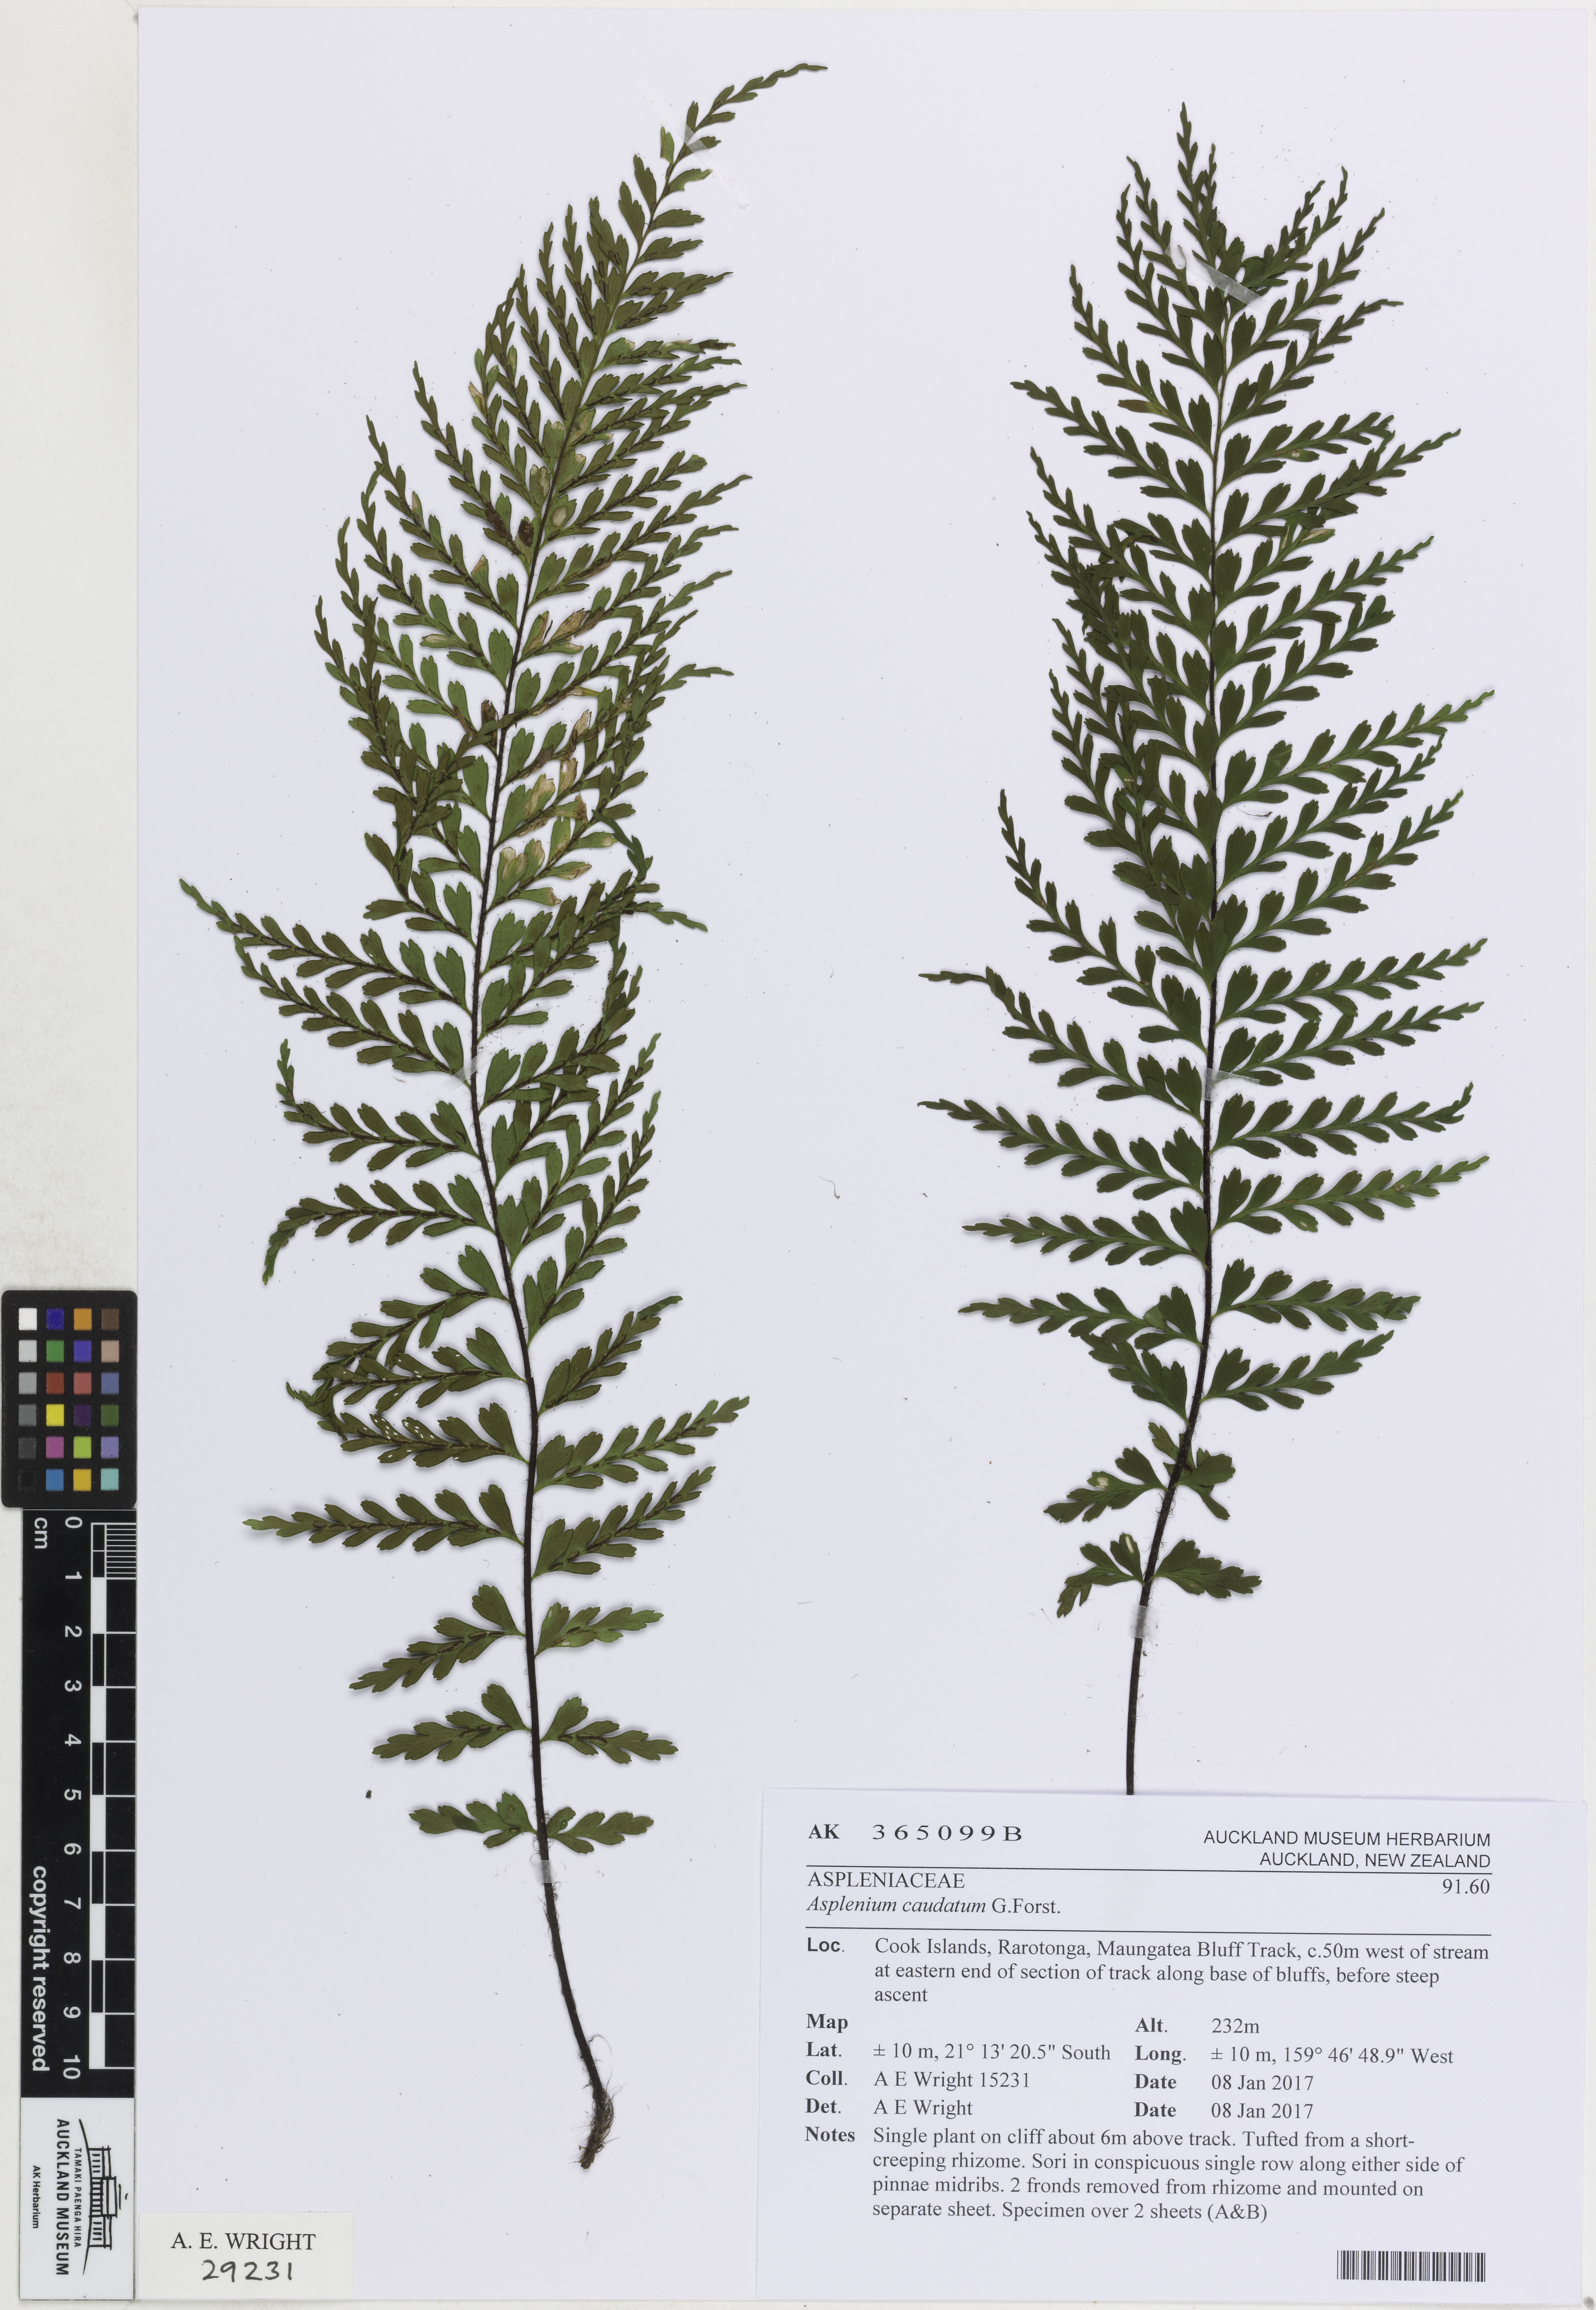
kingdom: Plantae
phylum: Tracheophyta
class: Polypodiopsida
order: Polypodiales
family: Aspleniaceae
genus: Asplenium
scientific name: Asplenium horridum
